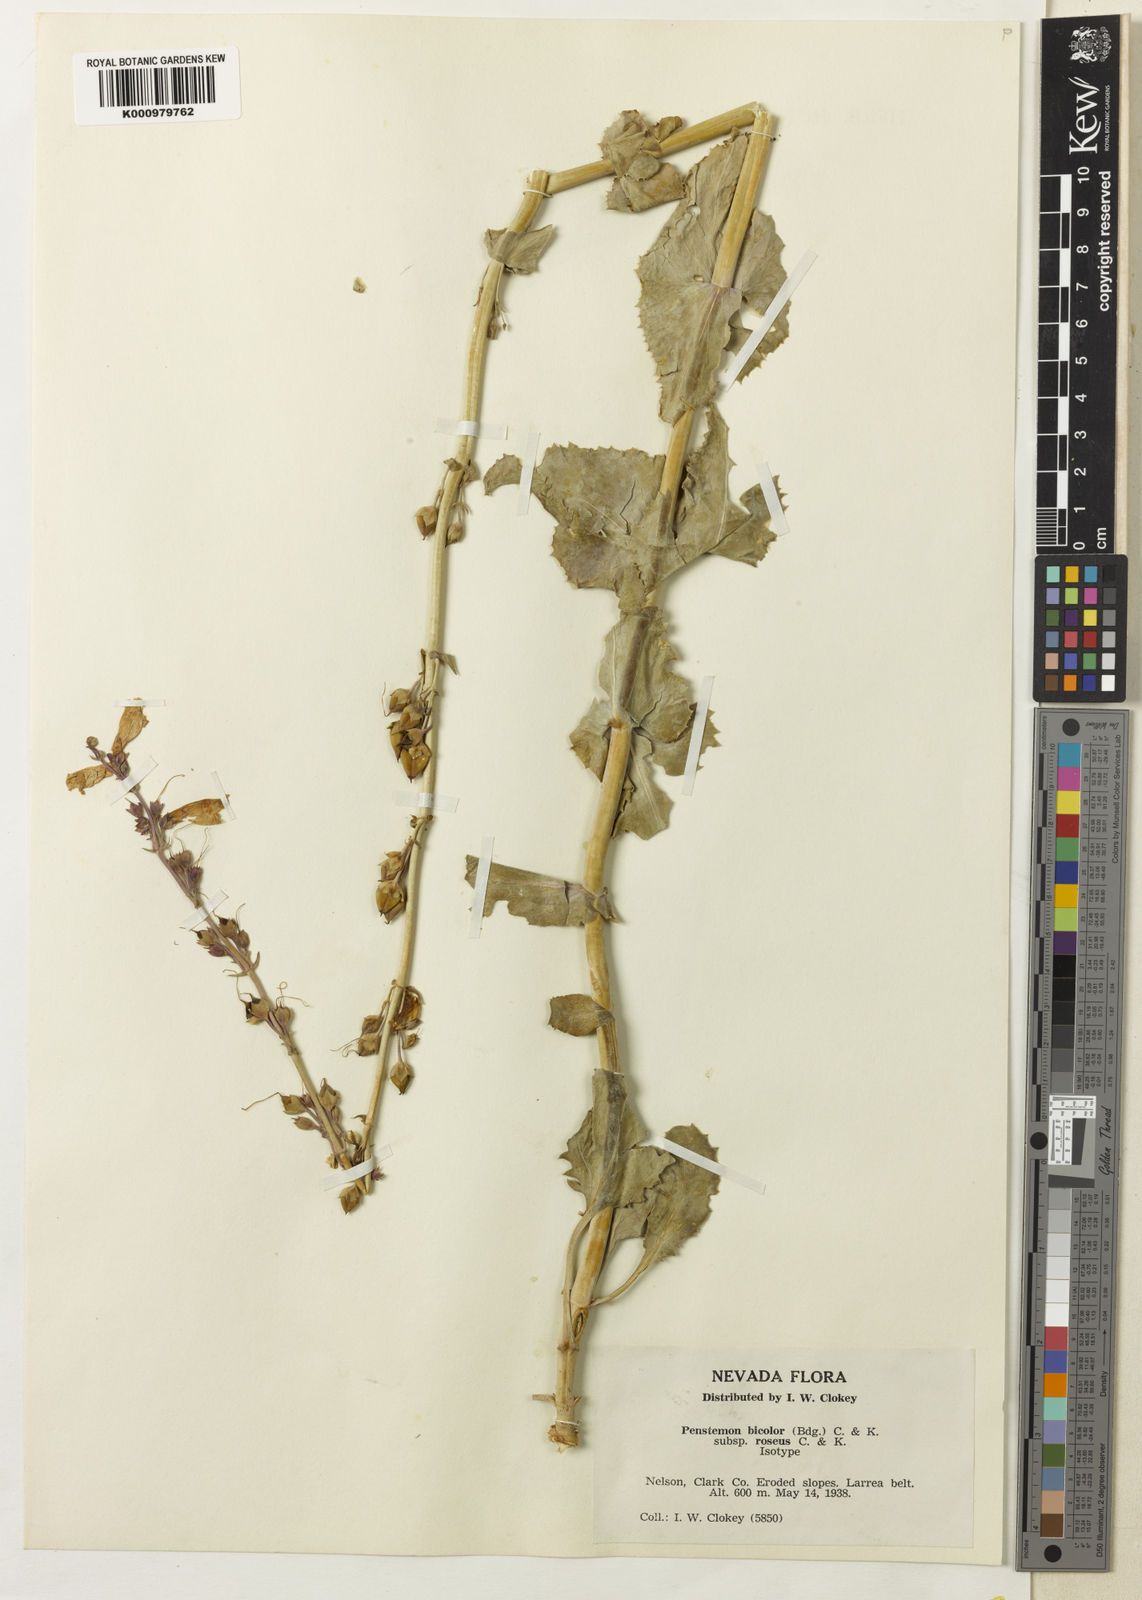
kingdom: Plantae
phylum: Tracheophyta
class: Magnoliopsida
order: Lamiales
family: Plantaginaceae
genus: Penstemon
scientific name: Penstemon
